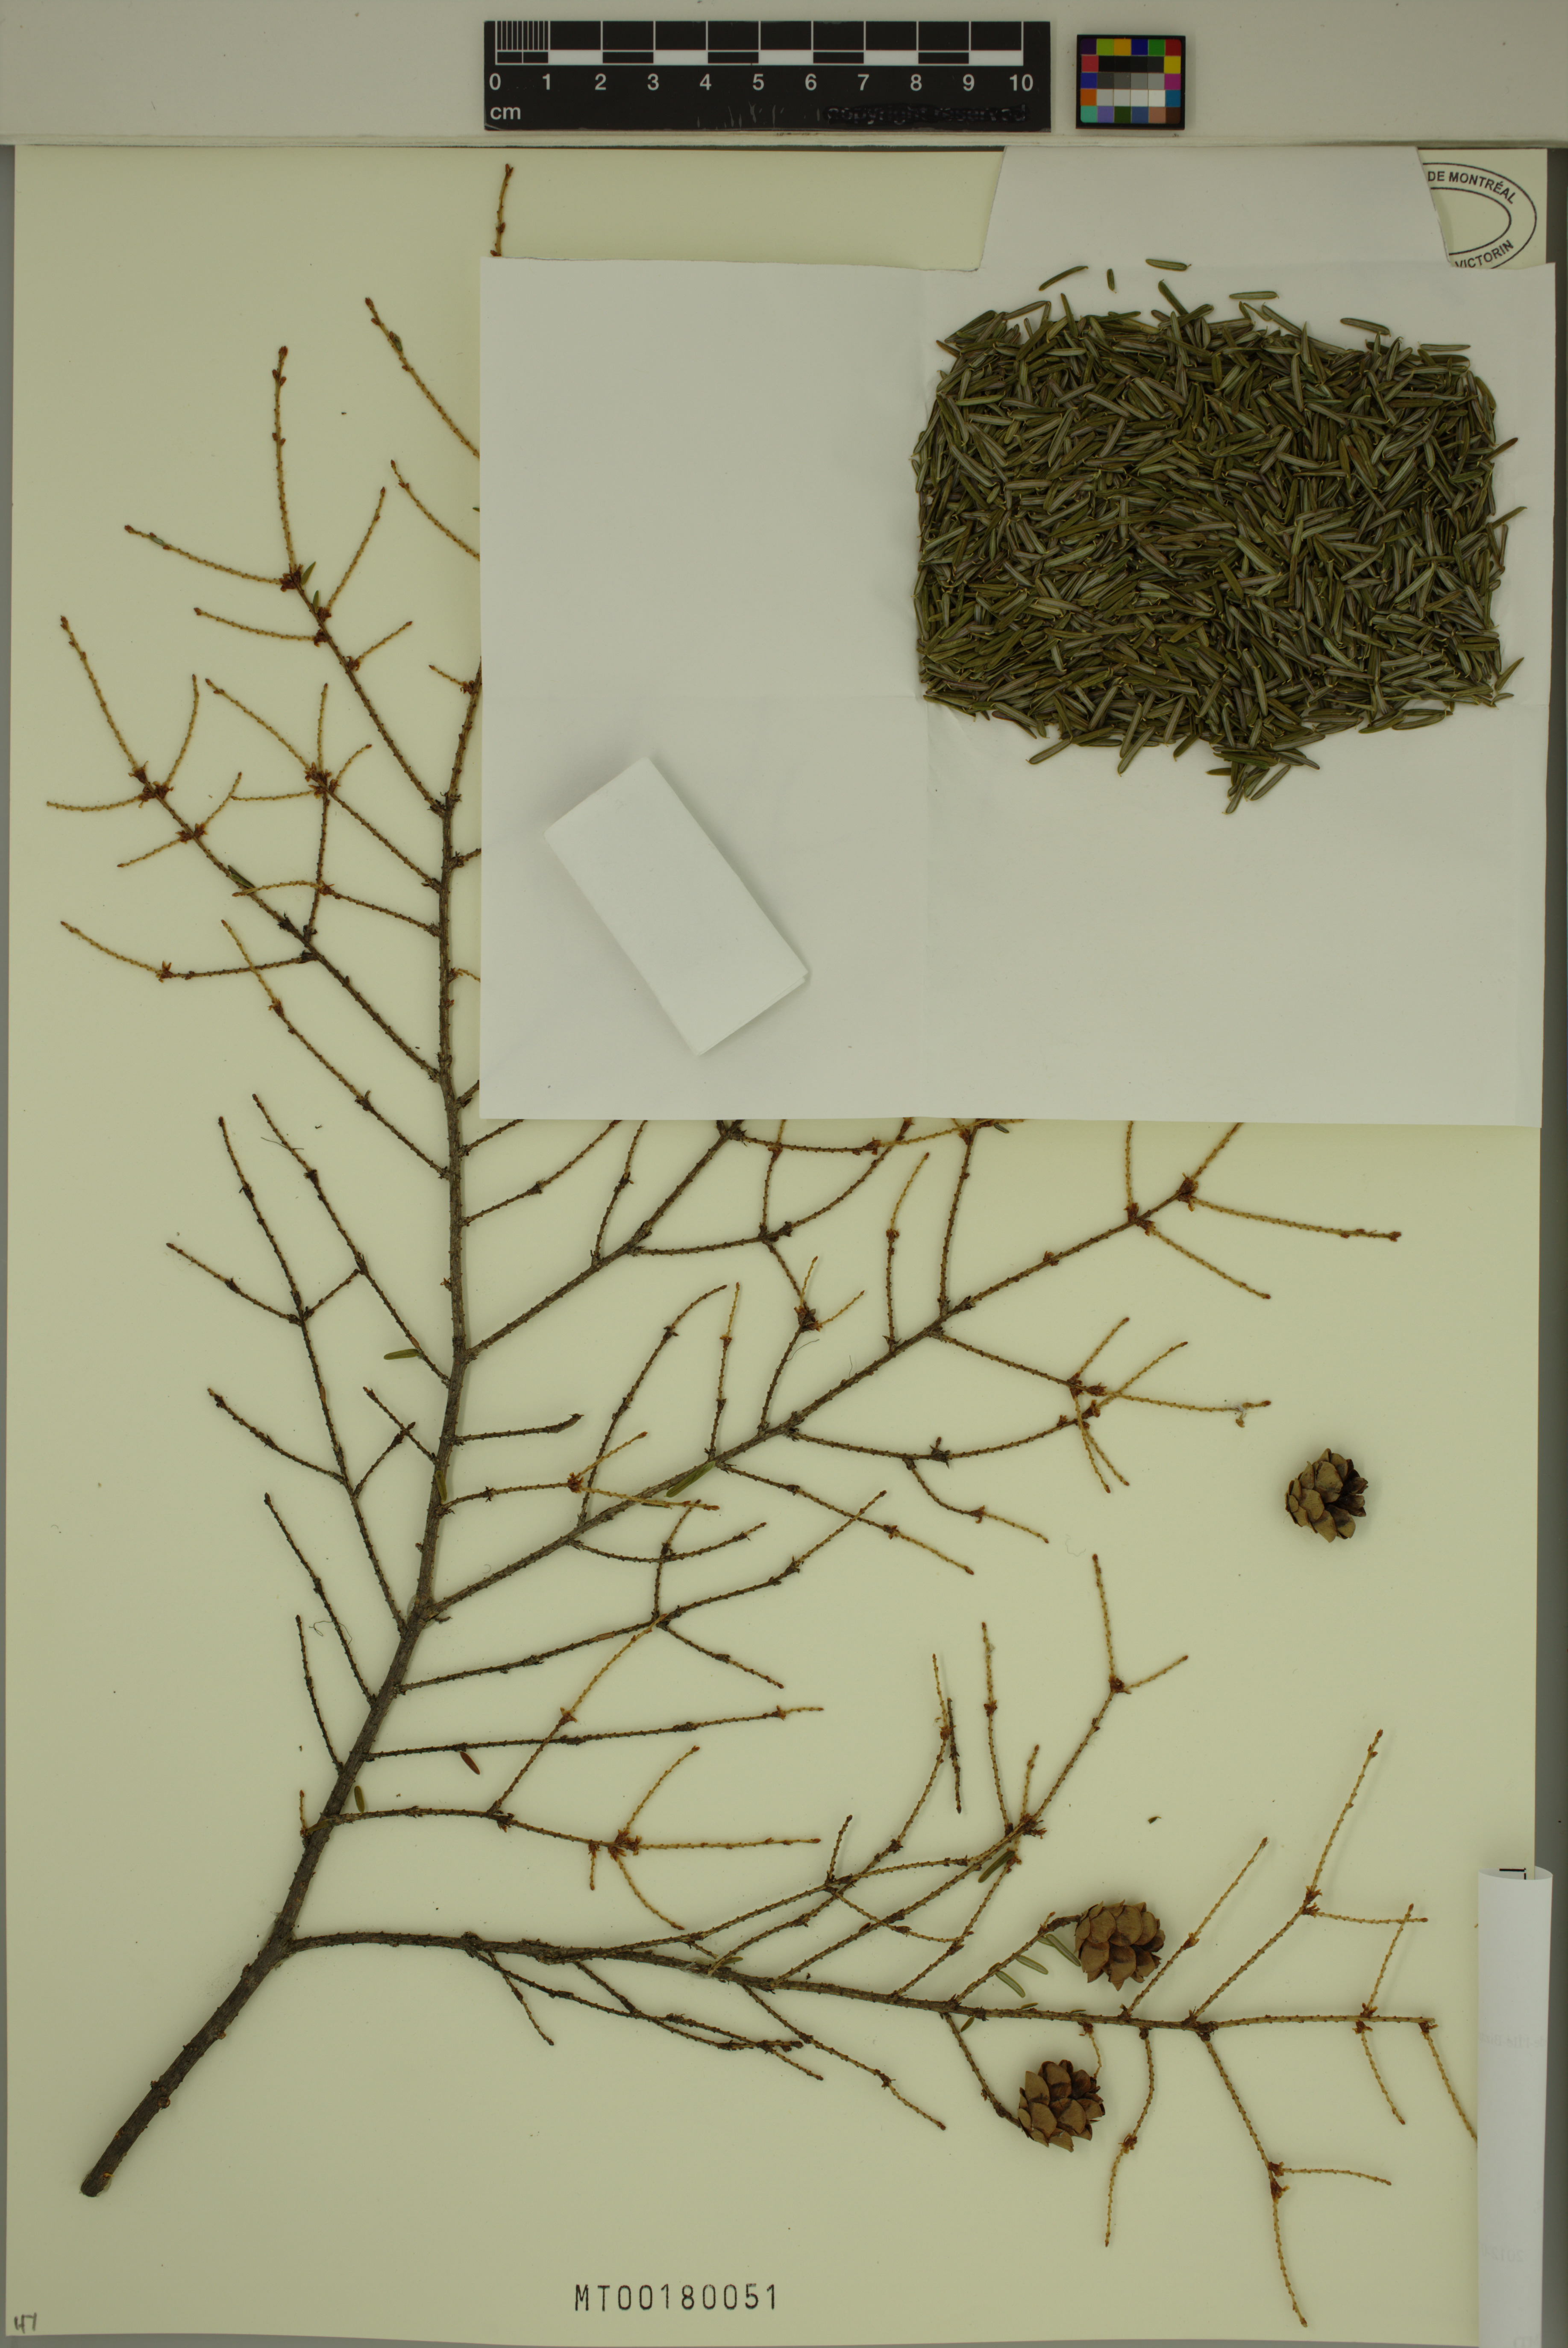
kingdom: Plantae
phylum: Tracheophyta
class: Pinopsida
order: Pinales
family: Pinaceae
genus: Tsuga
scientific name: Tsuga canadensis
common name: Eastern hemlock
